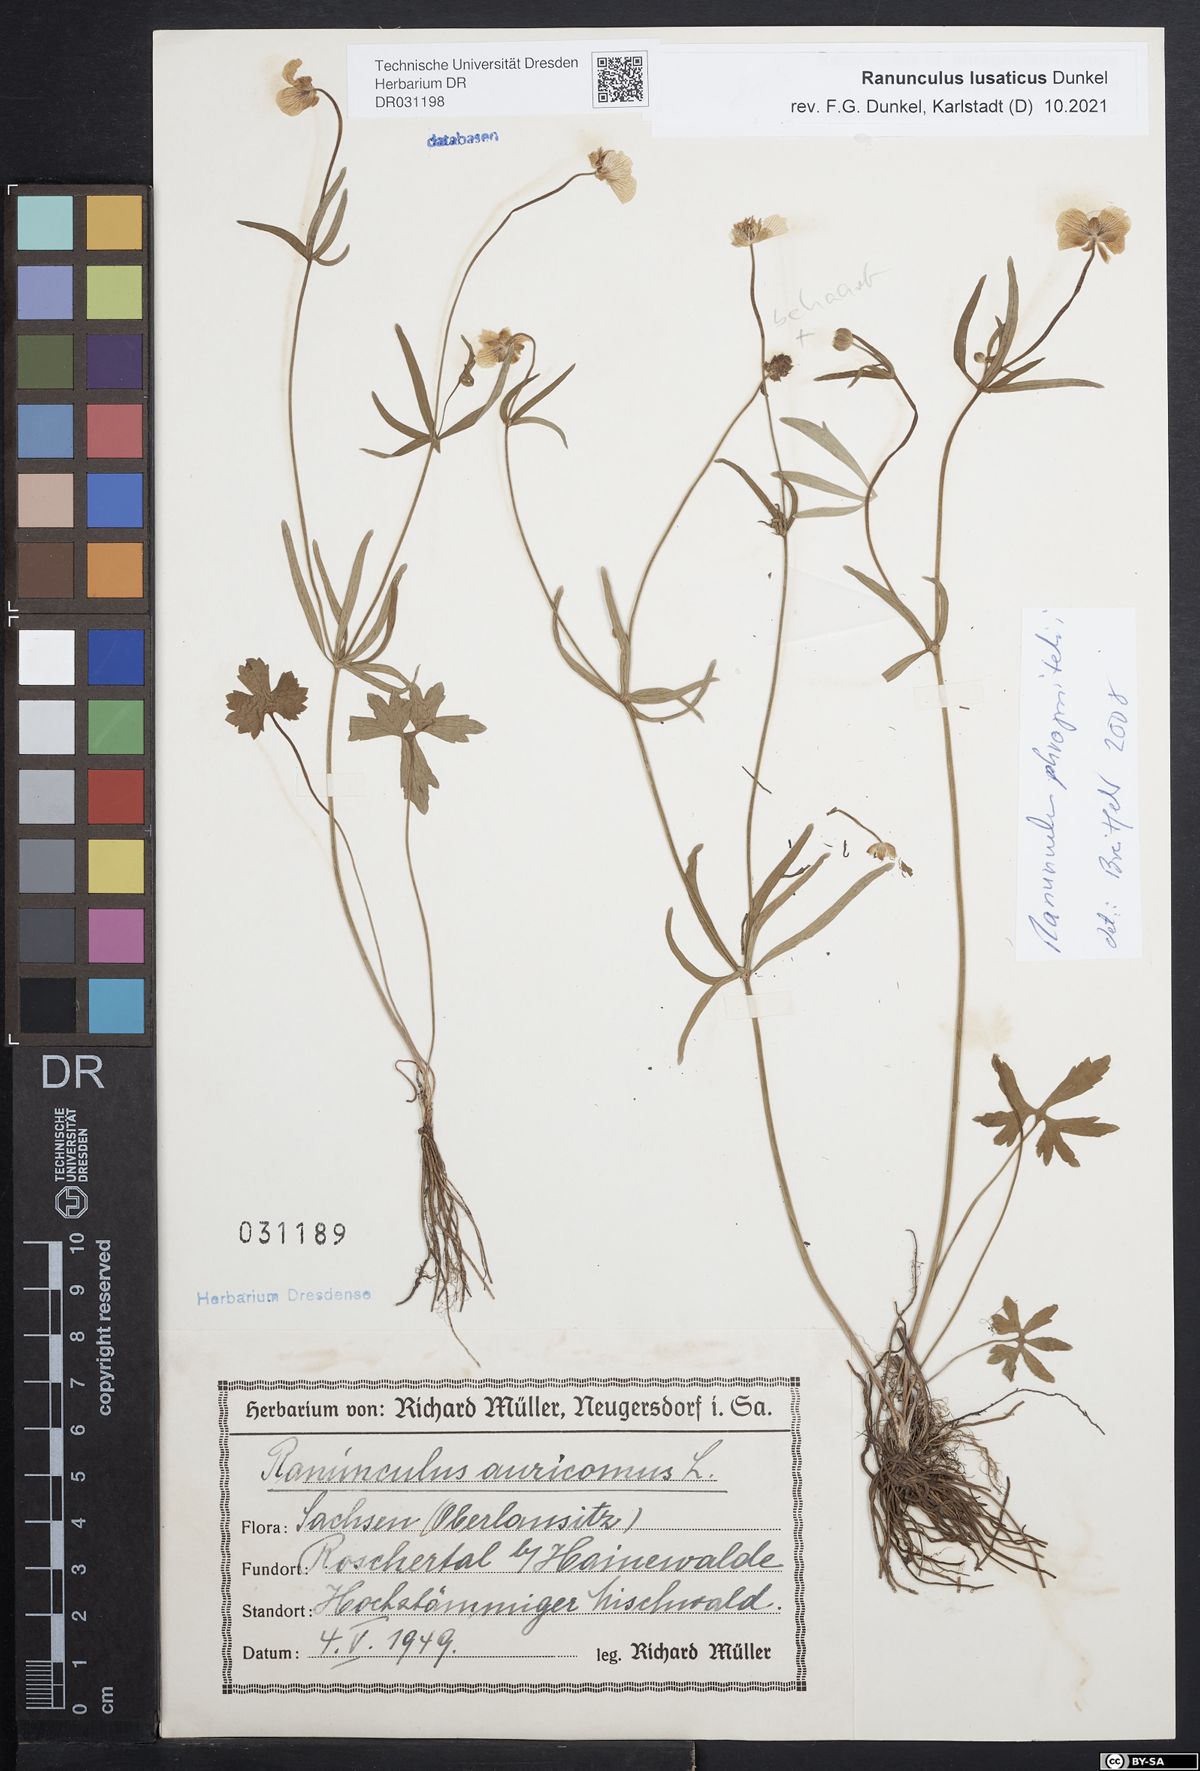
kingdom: Plantae
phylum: Tracheophyta
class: Magnoliopsida
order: Ranunculales
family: Ranunculaceae
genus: Ranunculus
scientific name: Ranunculus lusaticus
